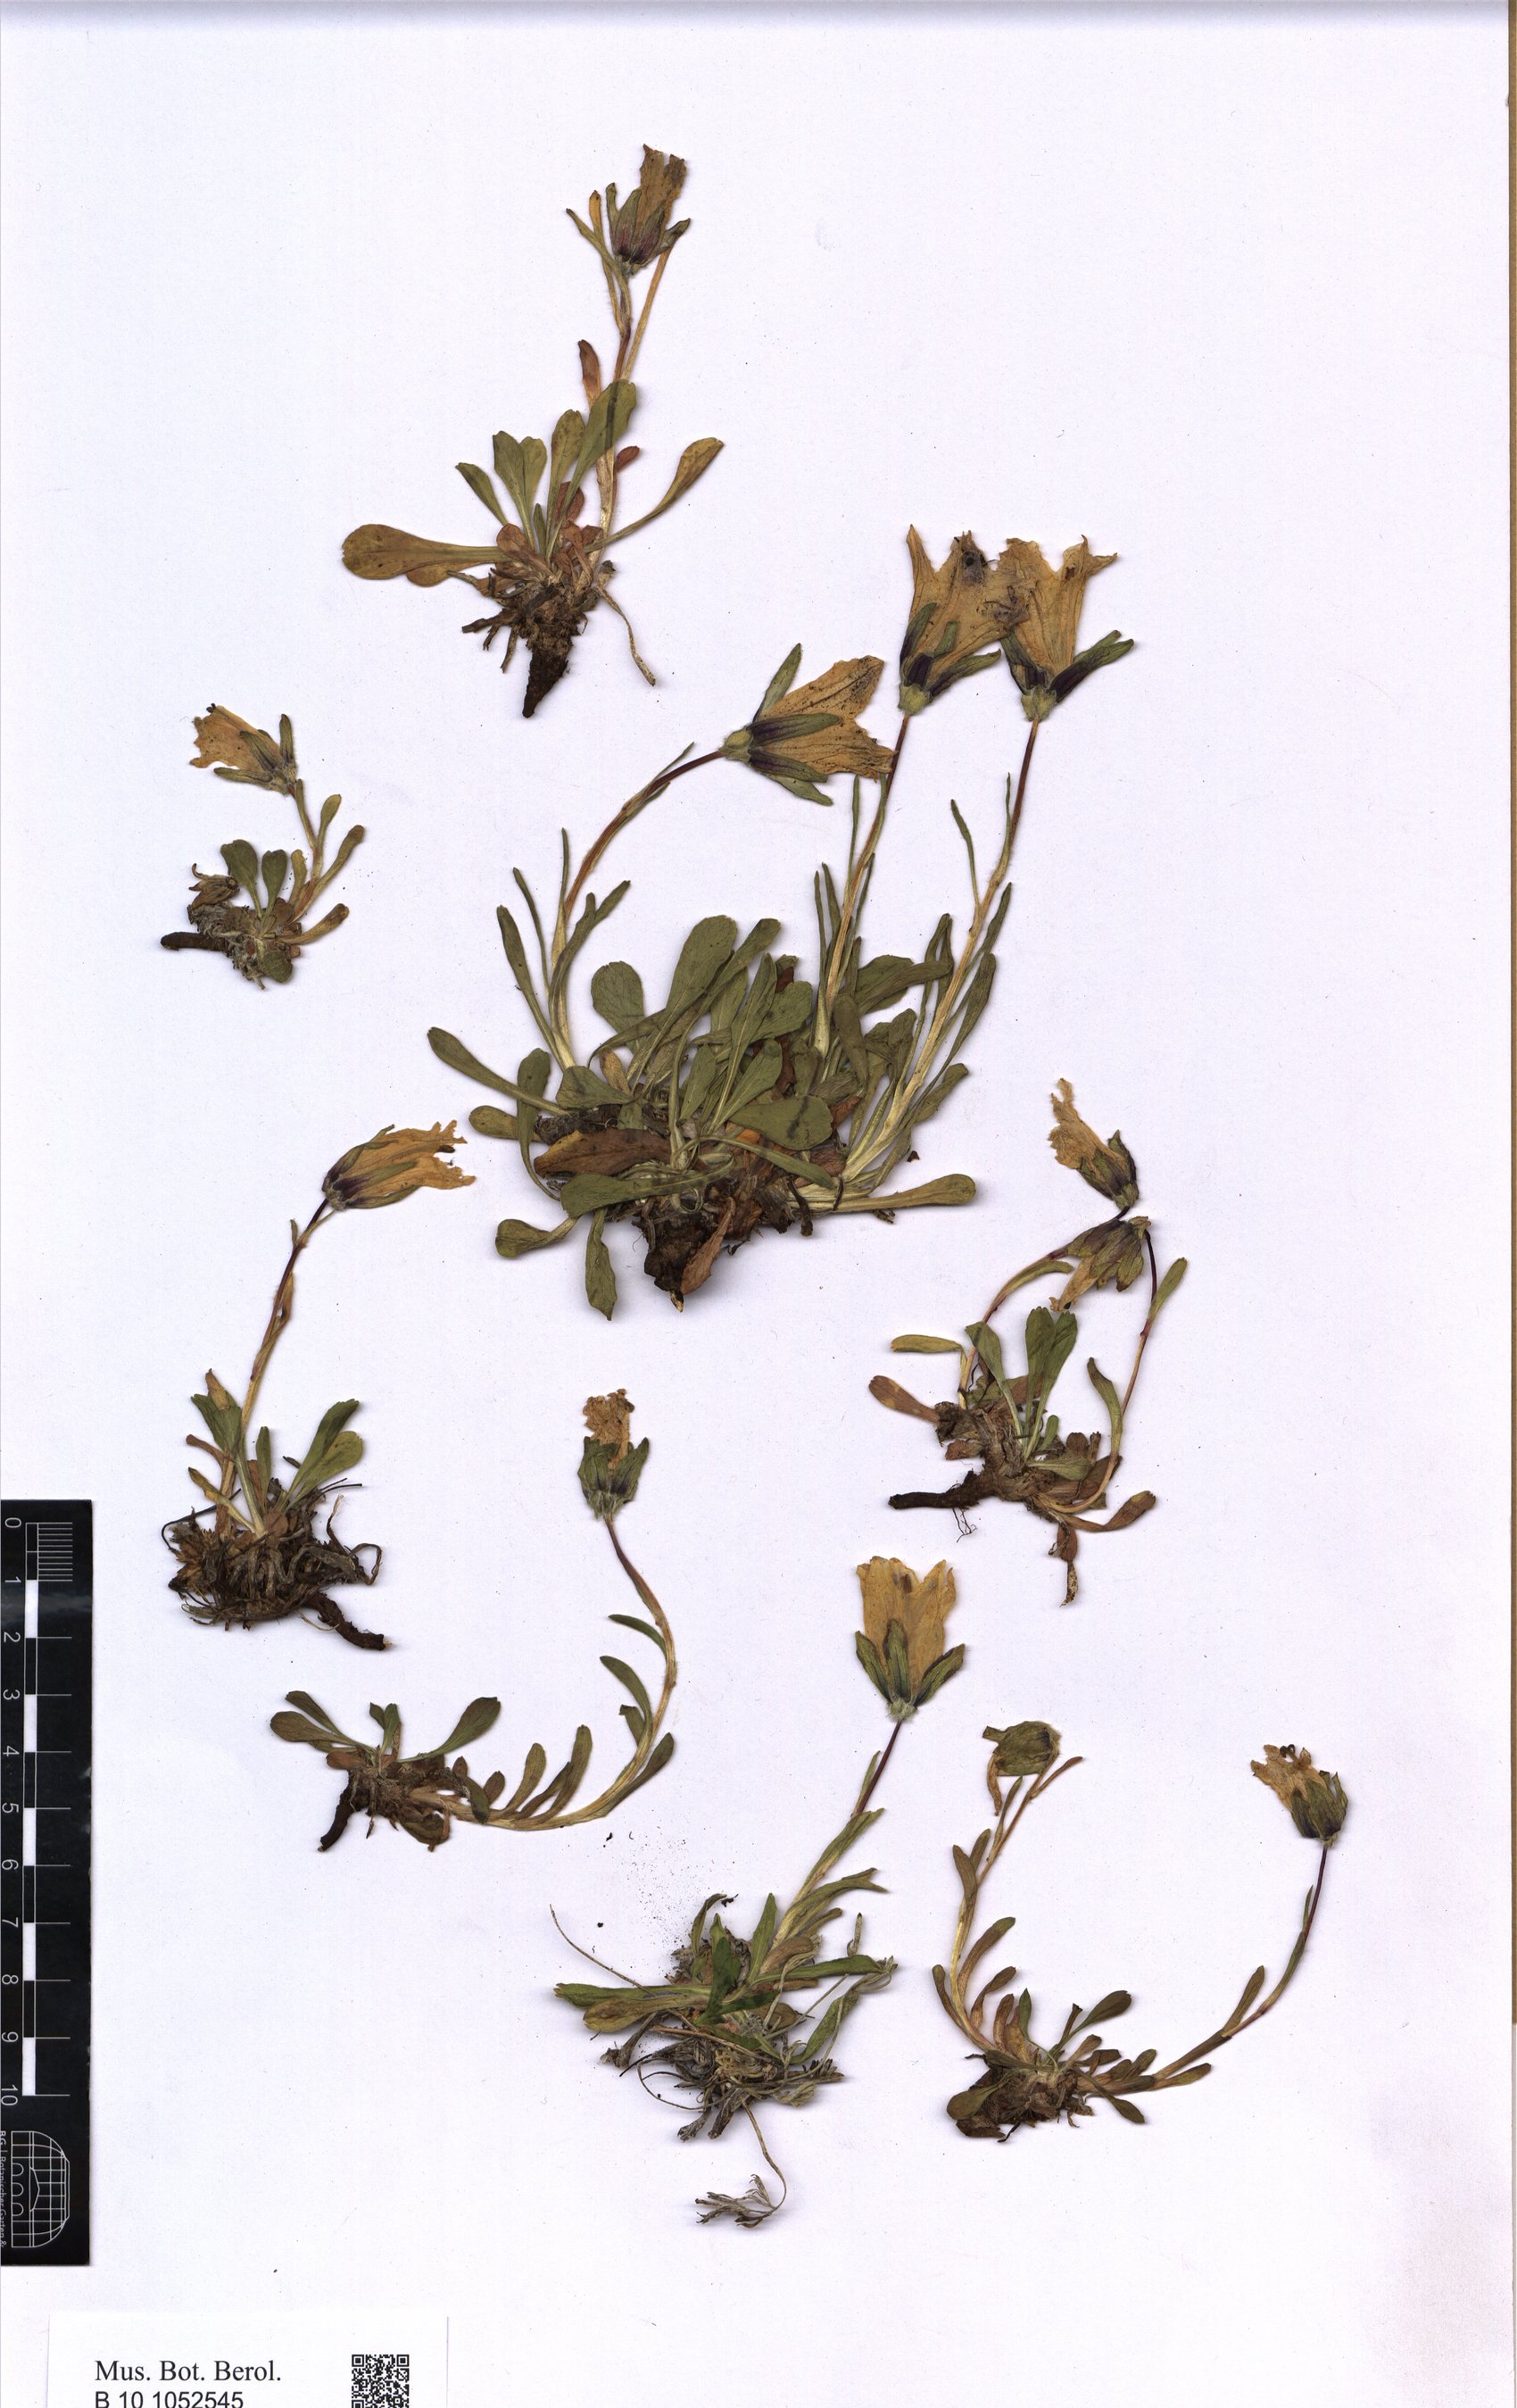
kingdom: Plantae
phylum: Tracheophyta
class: Magnoliopsida
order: Asterales
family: Campanulaceae
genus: Campanula
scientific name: Campanula tridentata
